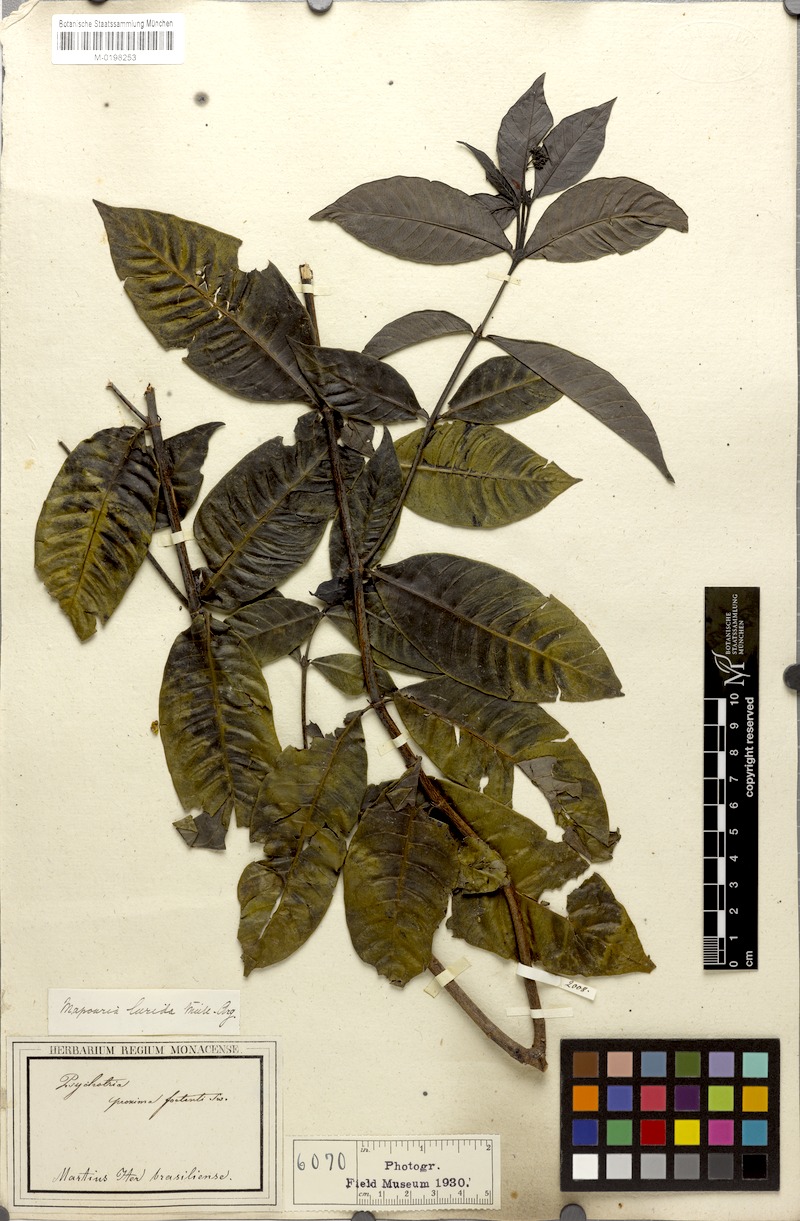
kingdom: Plantae
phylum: Tracheophyta
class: Magnoliopsida
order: Gentianales
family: Rubiaceae
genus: Psychotria
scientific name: Psychotria Mapouria lurida
